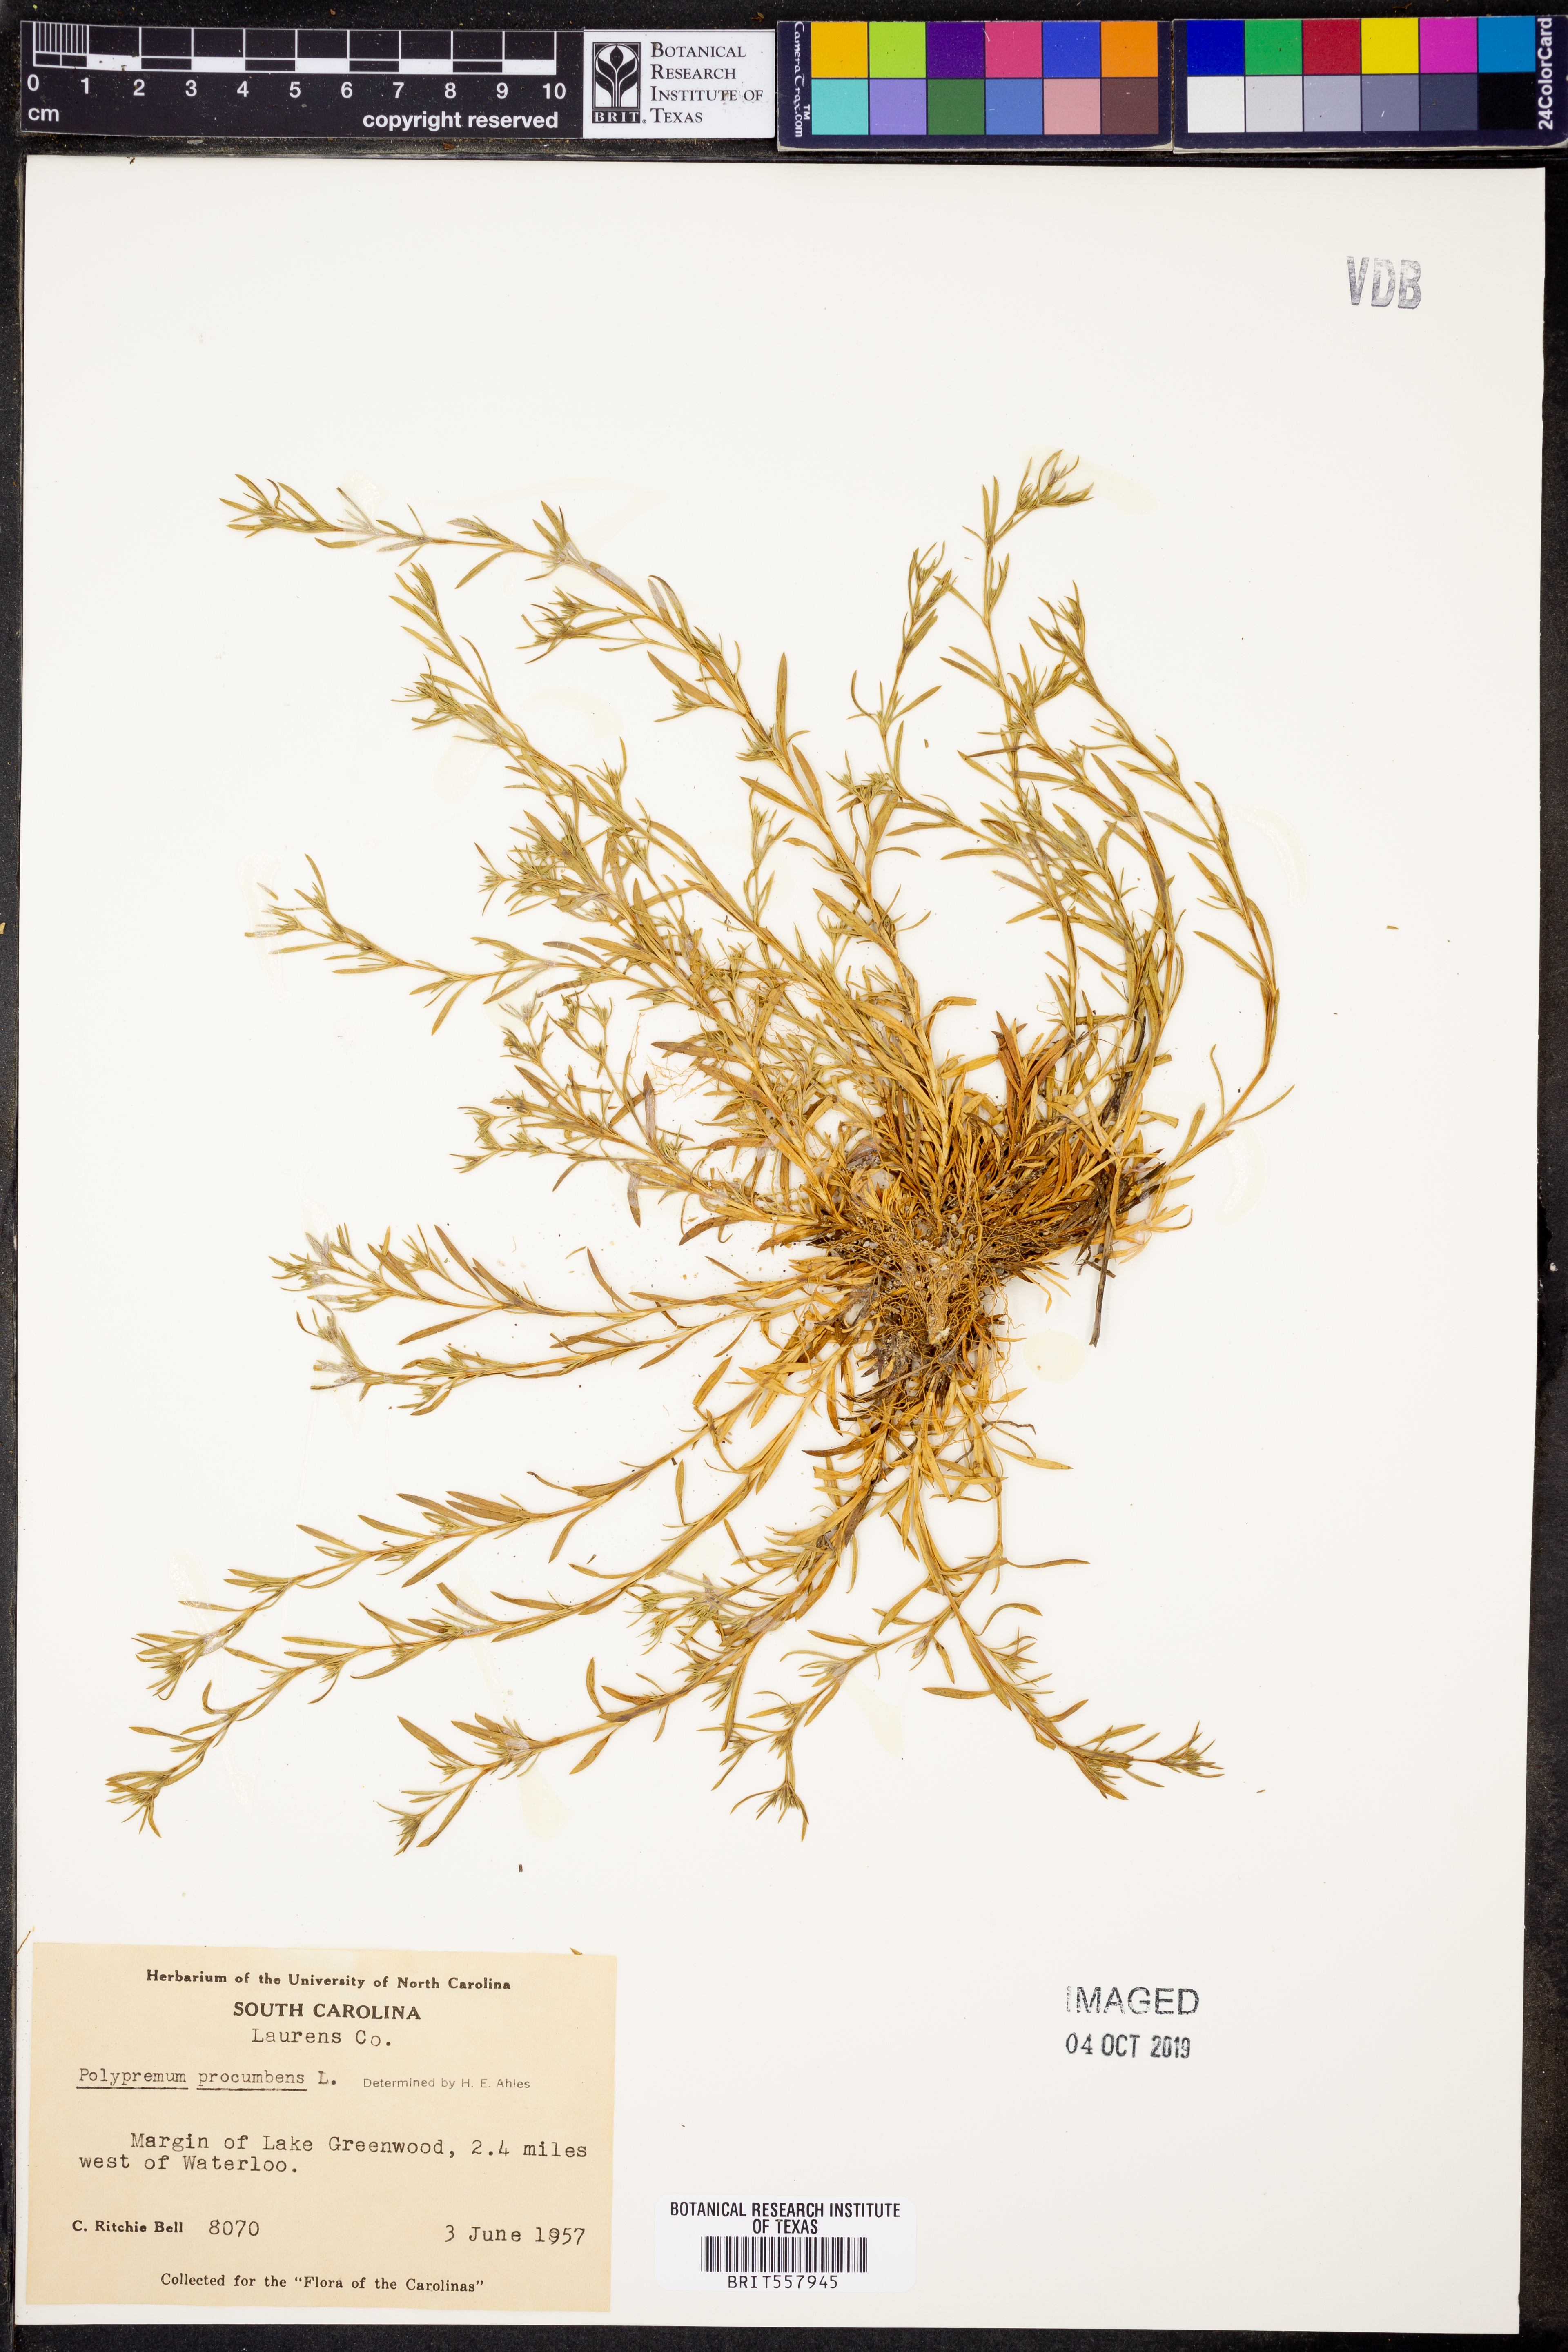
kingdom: Plantae
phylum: Tracheophyta
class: Magnoliopsida
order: Lamiales
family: Tetrachondraceae
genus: Polypremum
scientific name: Polypremum procumbens
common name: Juniper-leaf
